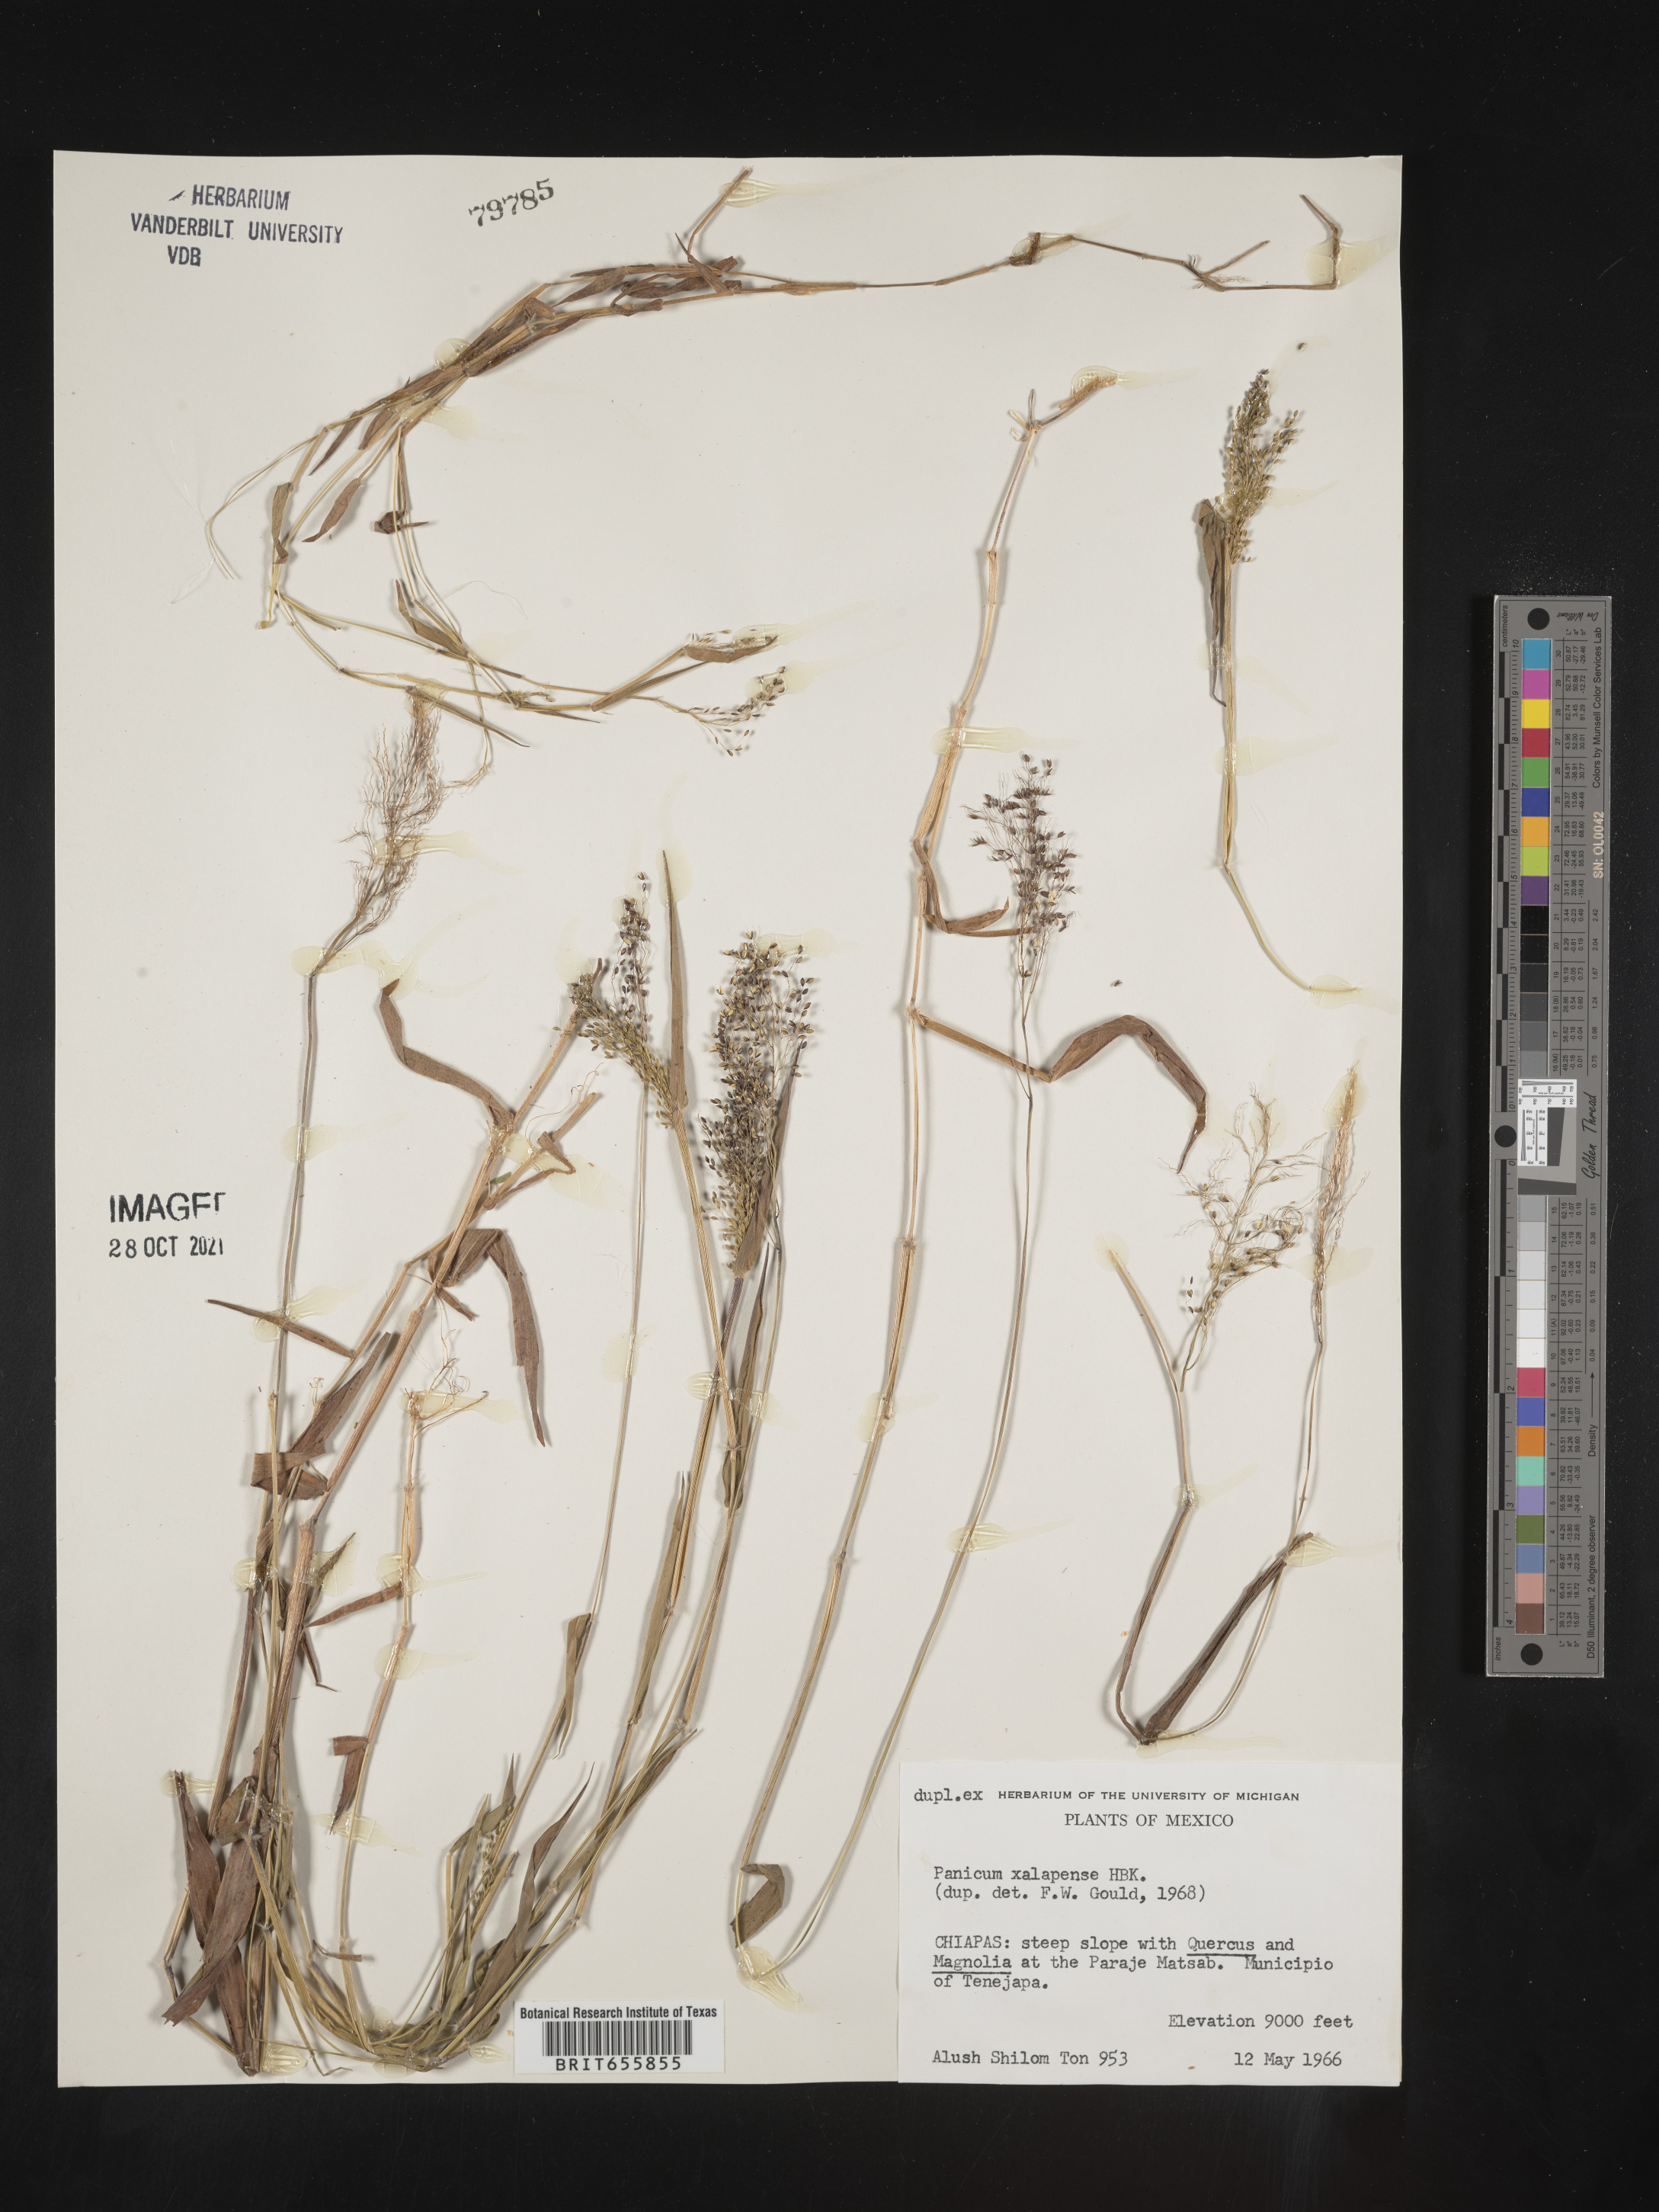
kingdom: Plantae
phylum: Tracheophyta
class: Liliopsida
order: Poales
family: Poaceae
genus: Panicum
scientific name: Panicum
